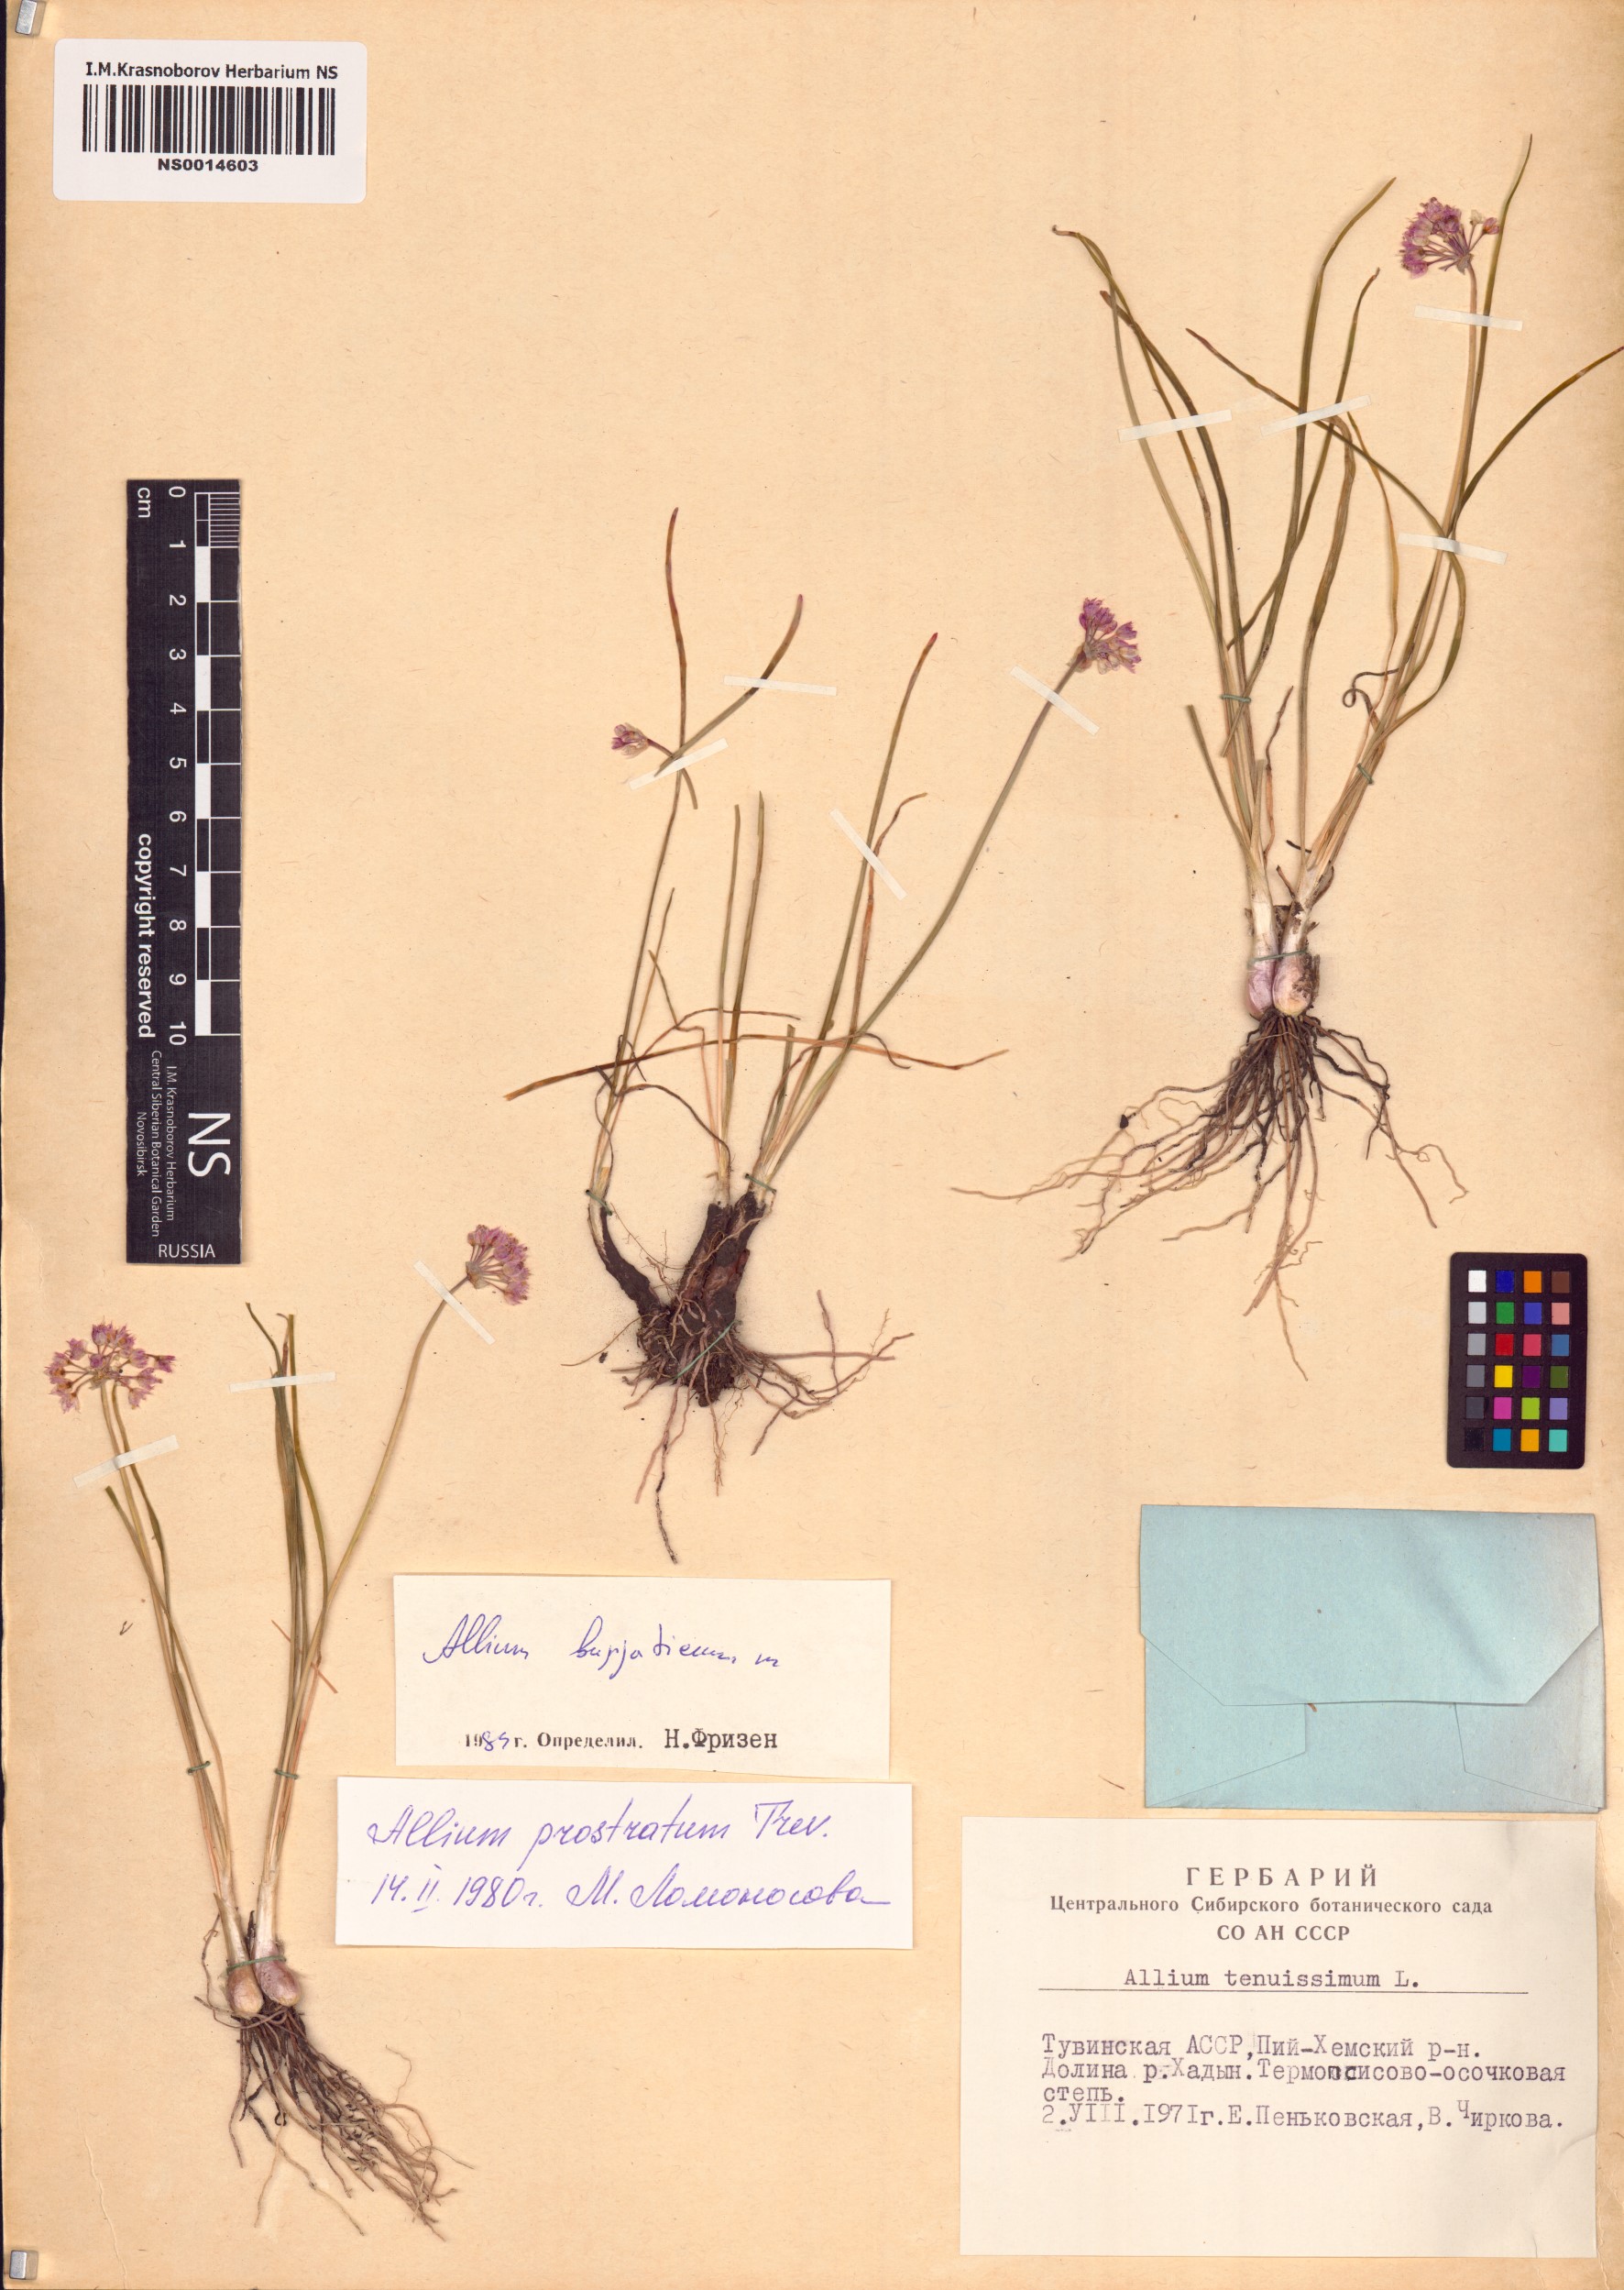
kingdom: Plantae
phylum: Tracheophyta
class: Liliopsida
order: Asparagales
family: Amaryllidaceae
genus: Allium
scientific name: Allium burjaticum
